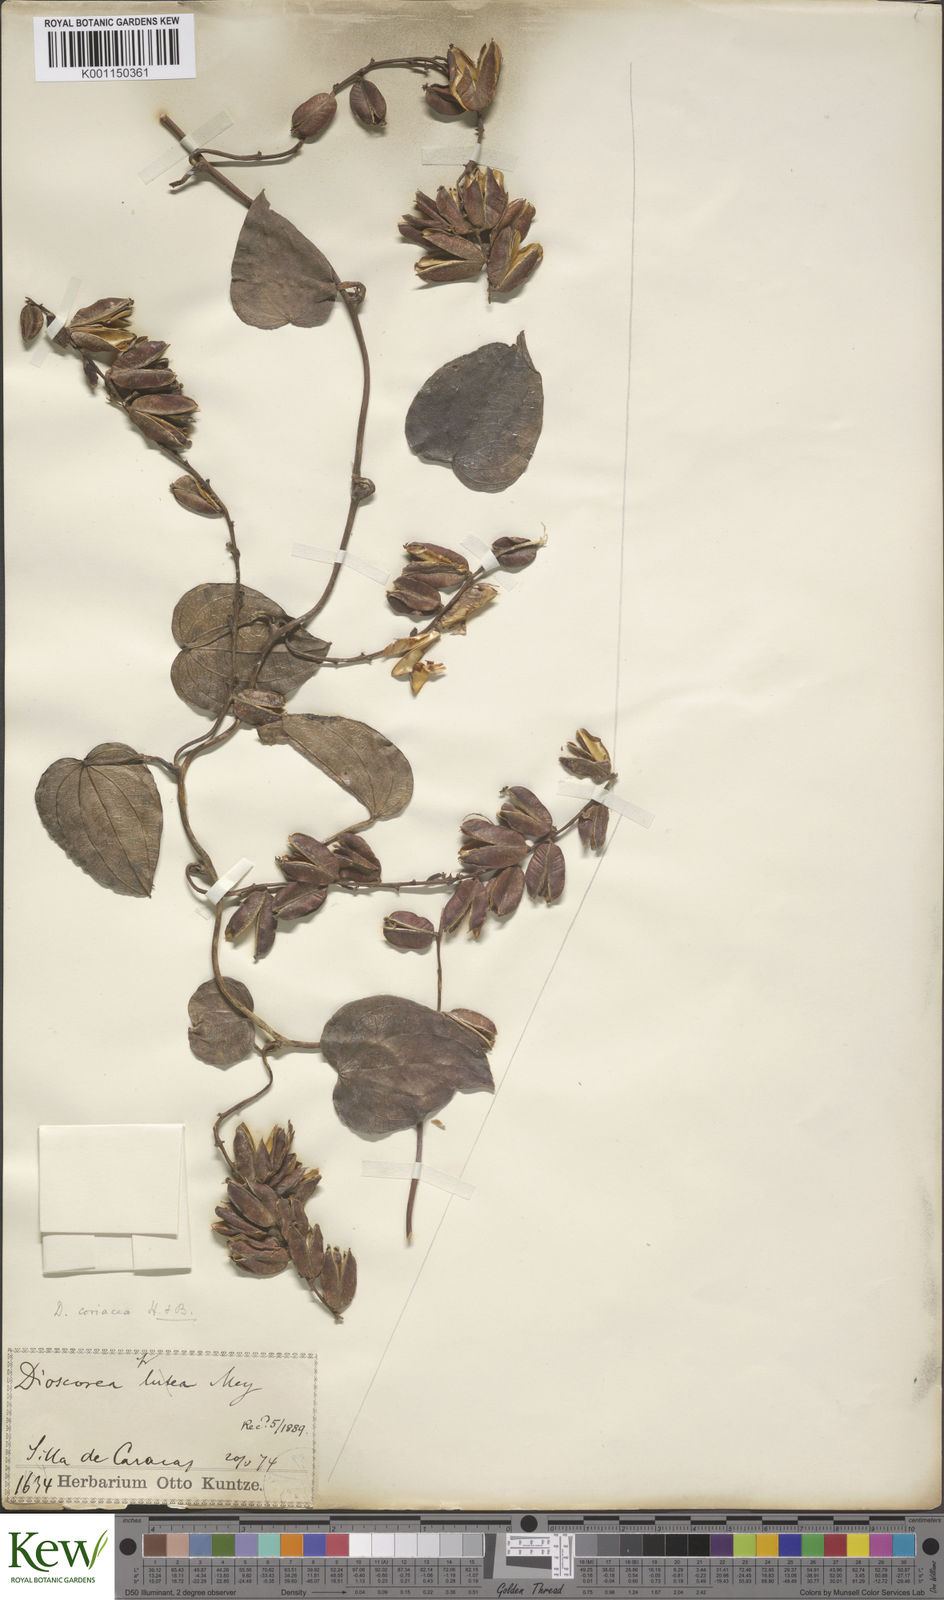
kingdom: Plantae
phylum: Tracheophyta
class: Liliopsida
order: Dioscoreales
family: Dioscoreaceae
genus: Dioscorea
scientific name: Dioscorea coriacea
